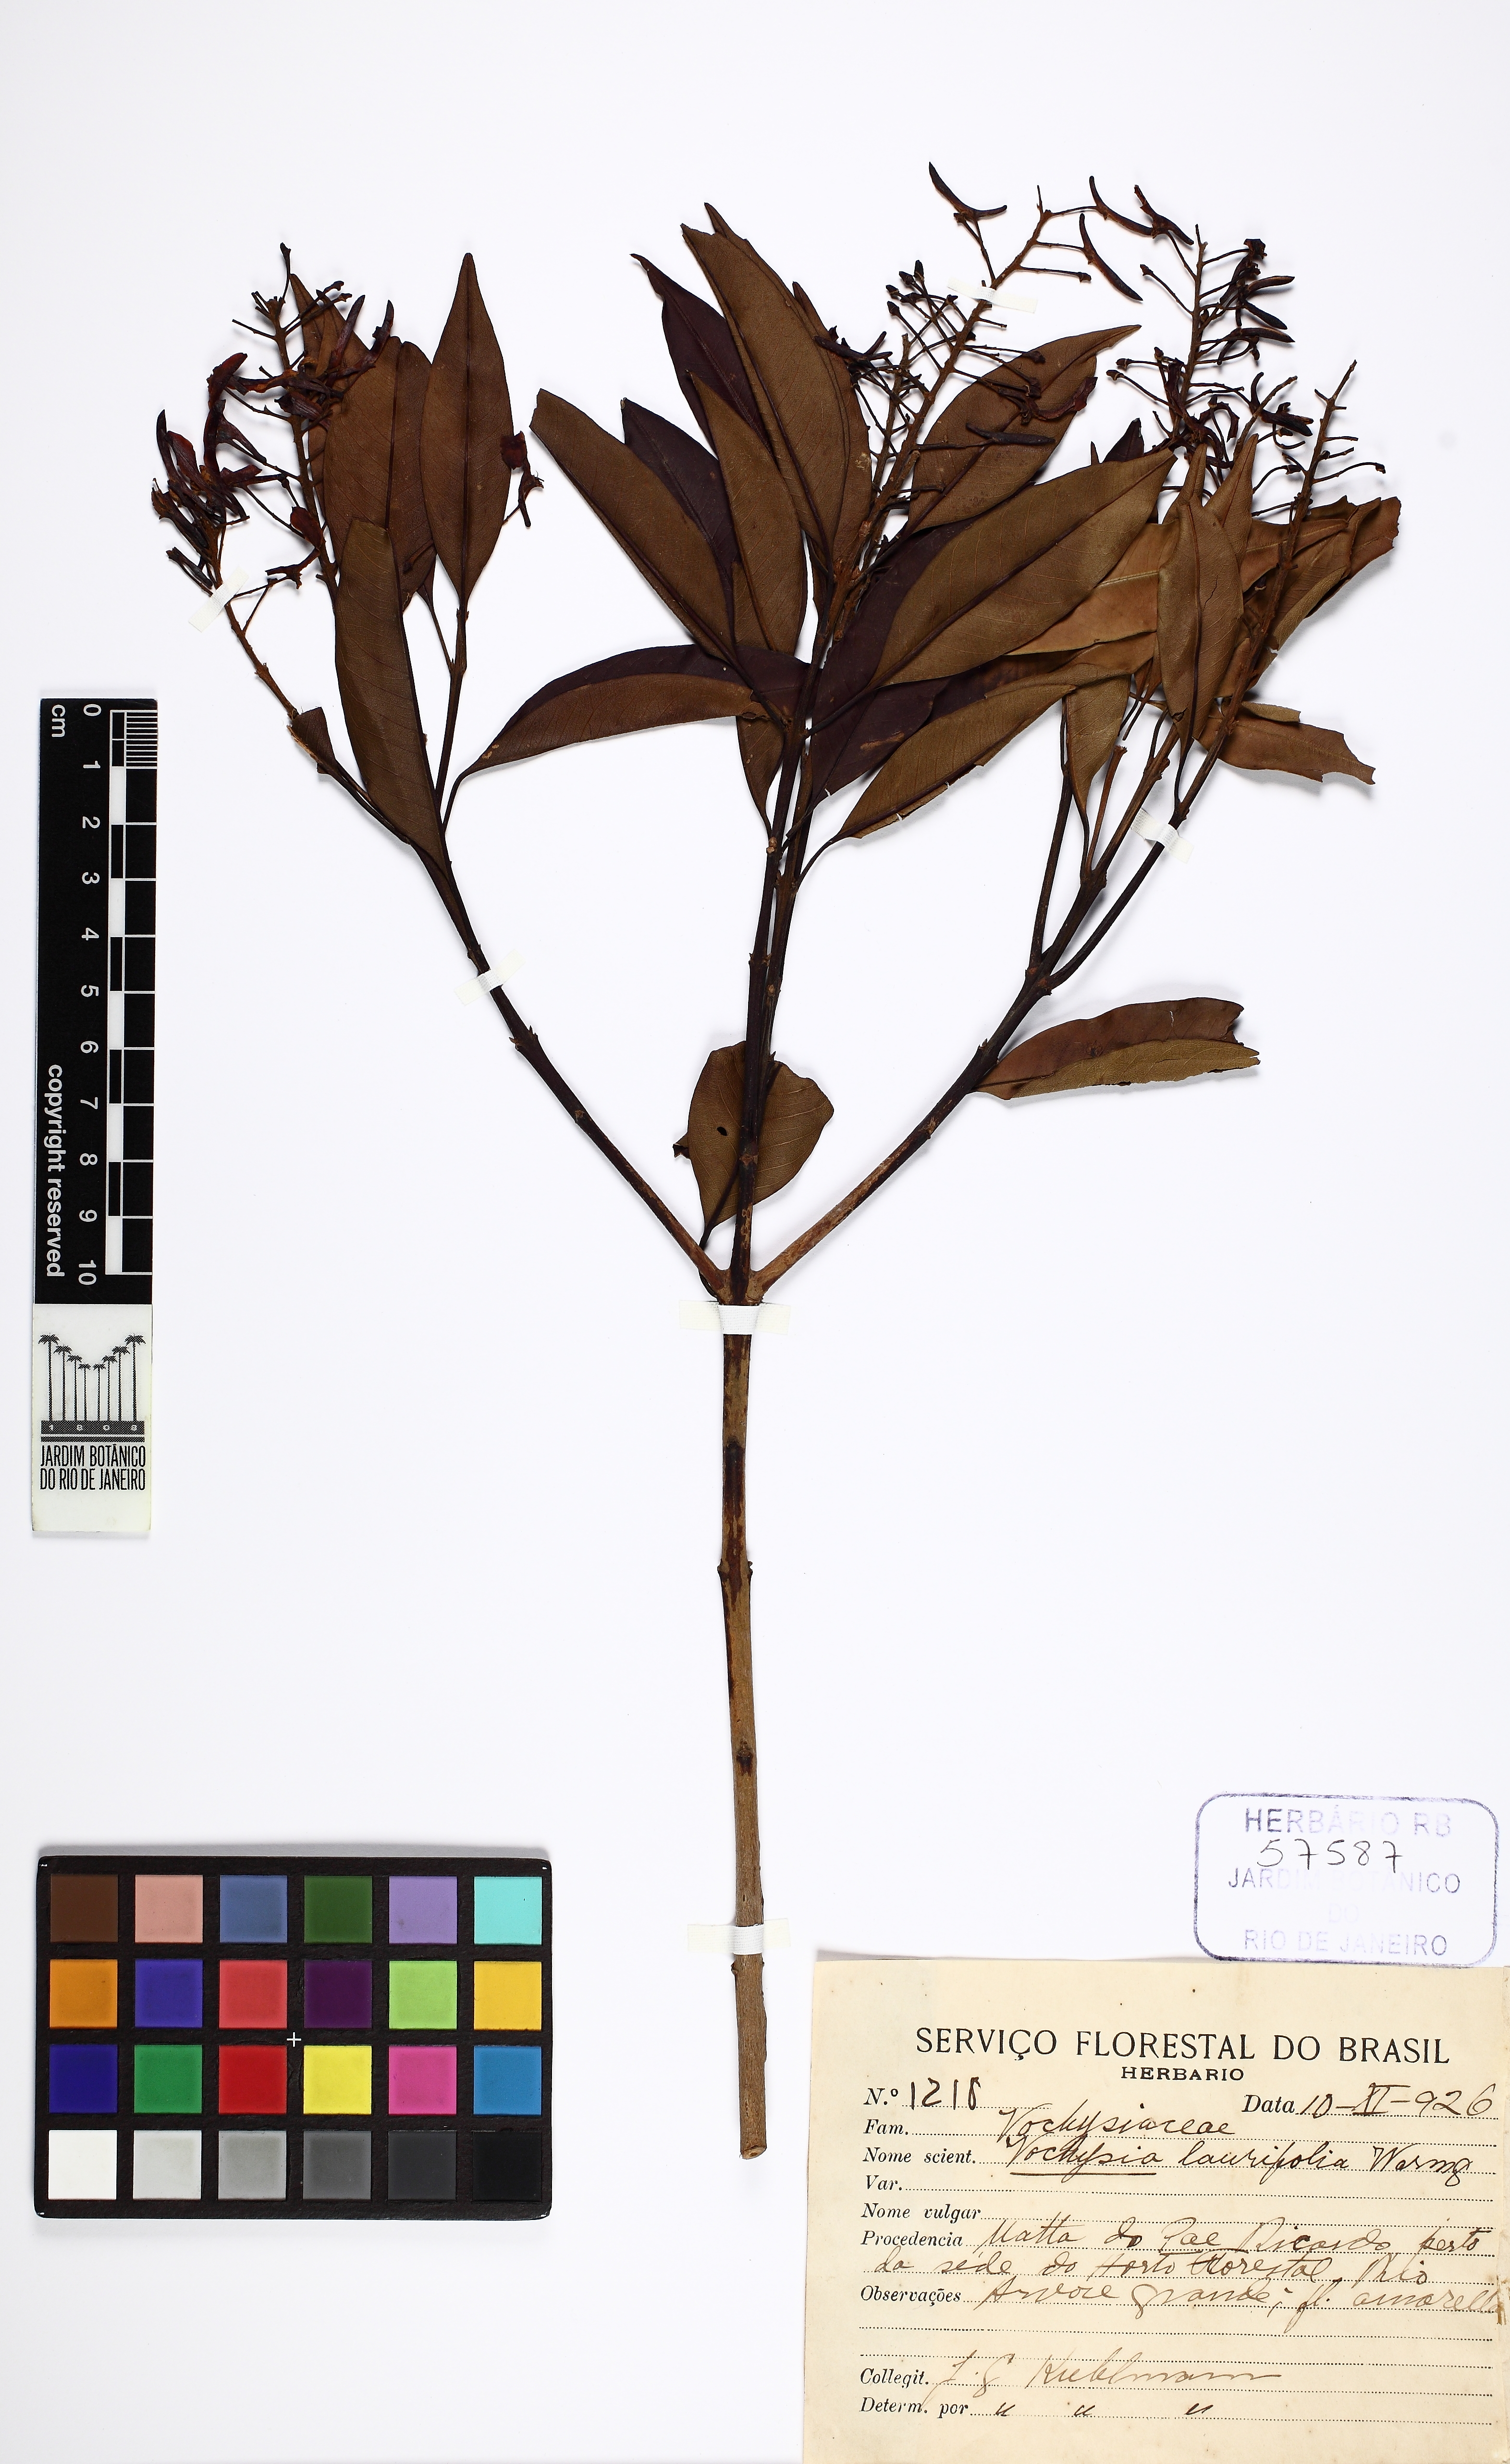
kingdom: Plantae
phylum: Tracheophyta
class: Magnoliopsida
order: Myrtales
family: Vochysiaceae
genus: Vochysia
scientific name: Vochysia laurifolia
